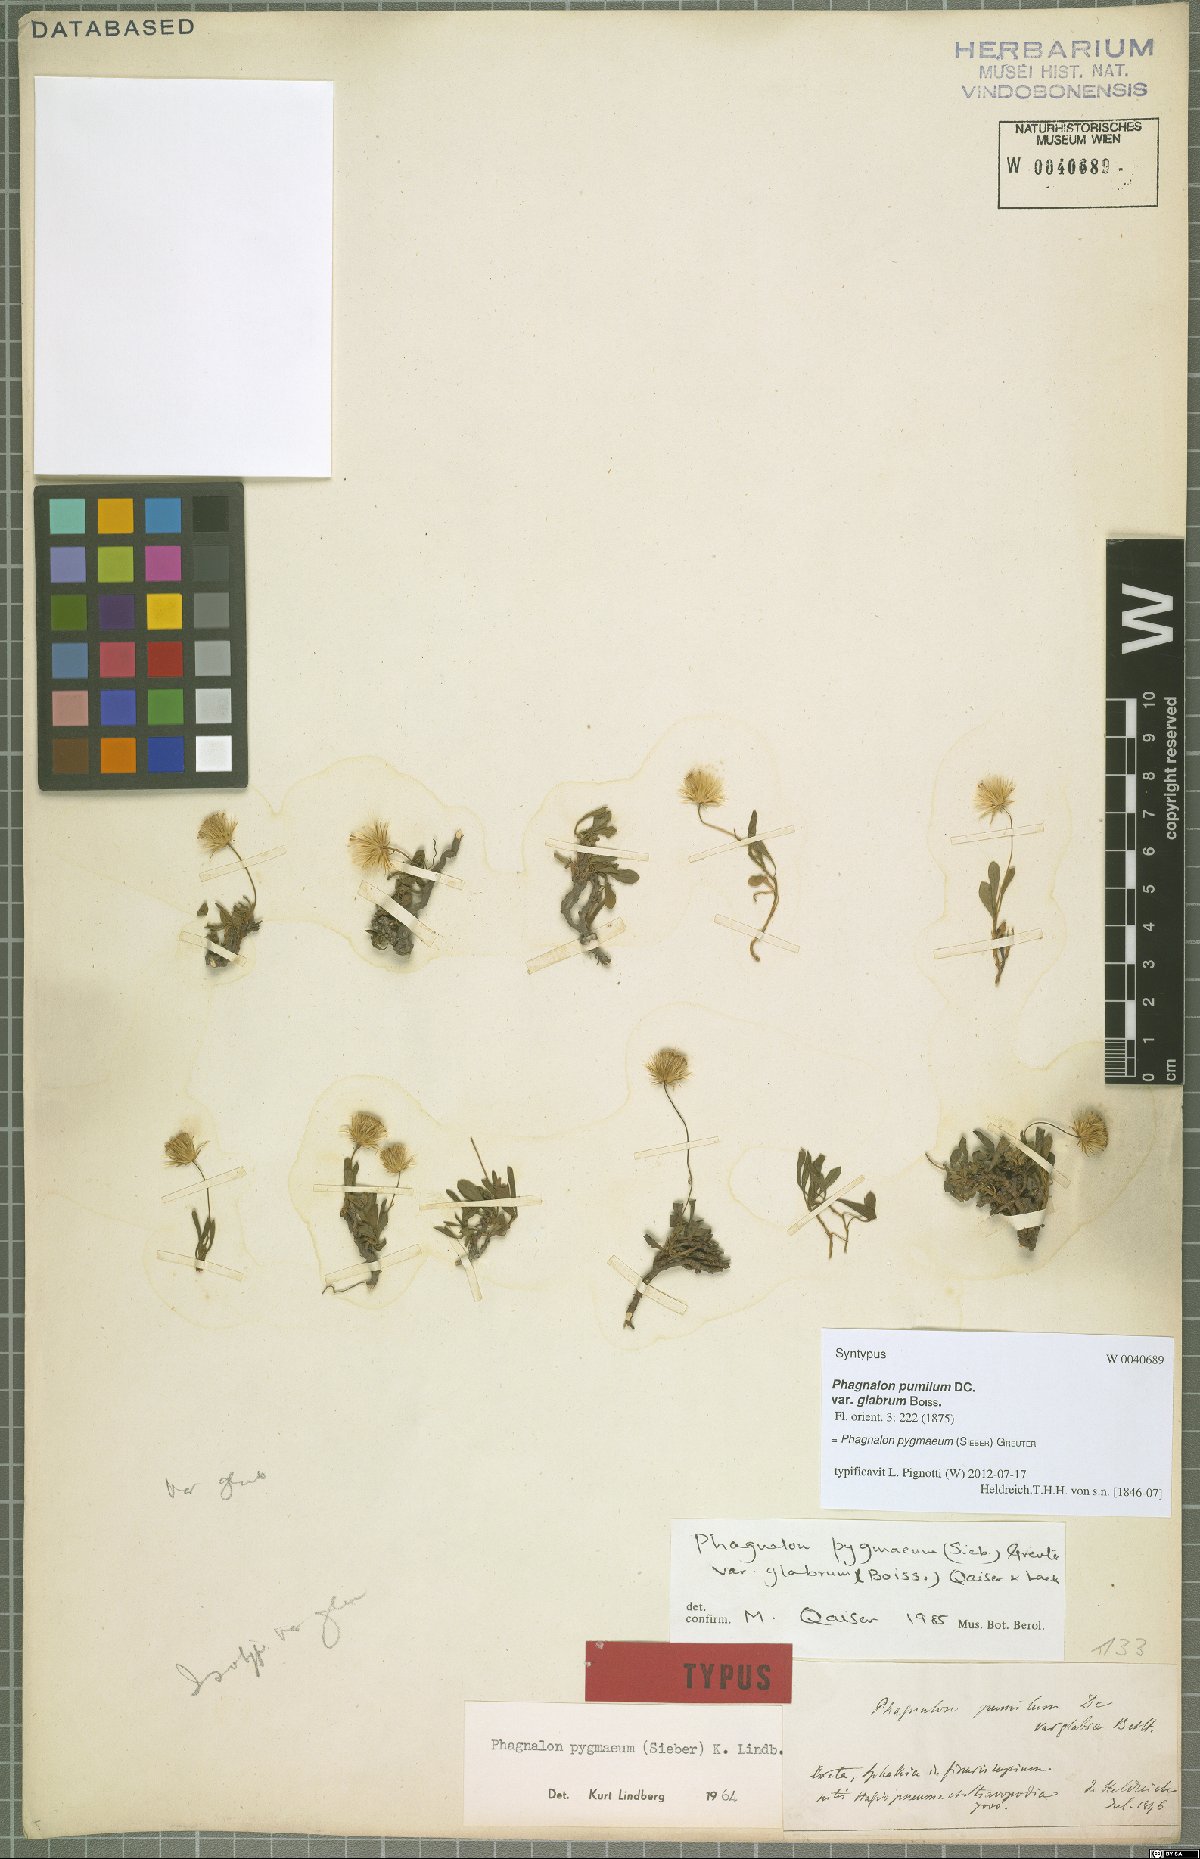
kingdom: Plantae
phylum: Tracheophyta
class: Magnoliopsida
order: Asterales
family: Asteraceae
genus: Phagnalon
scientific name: Phagnalon pygmaeum
